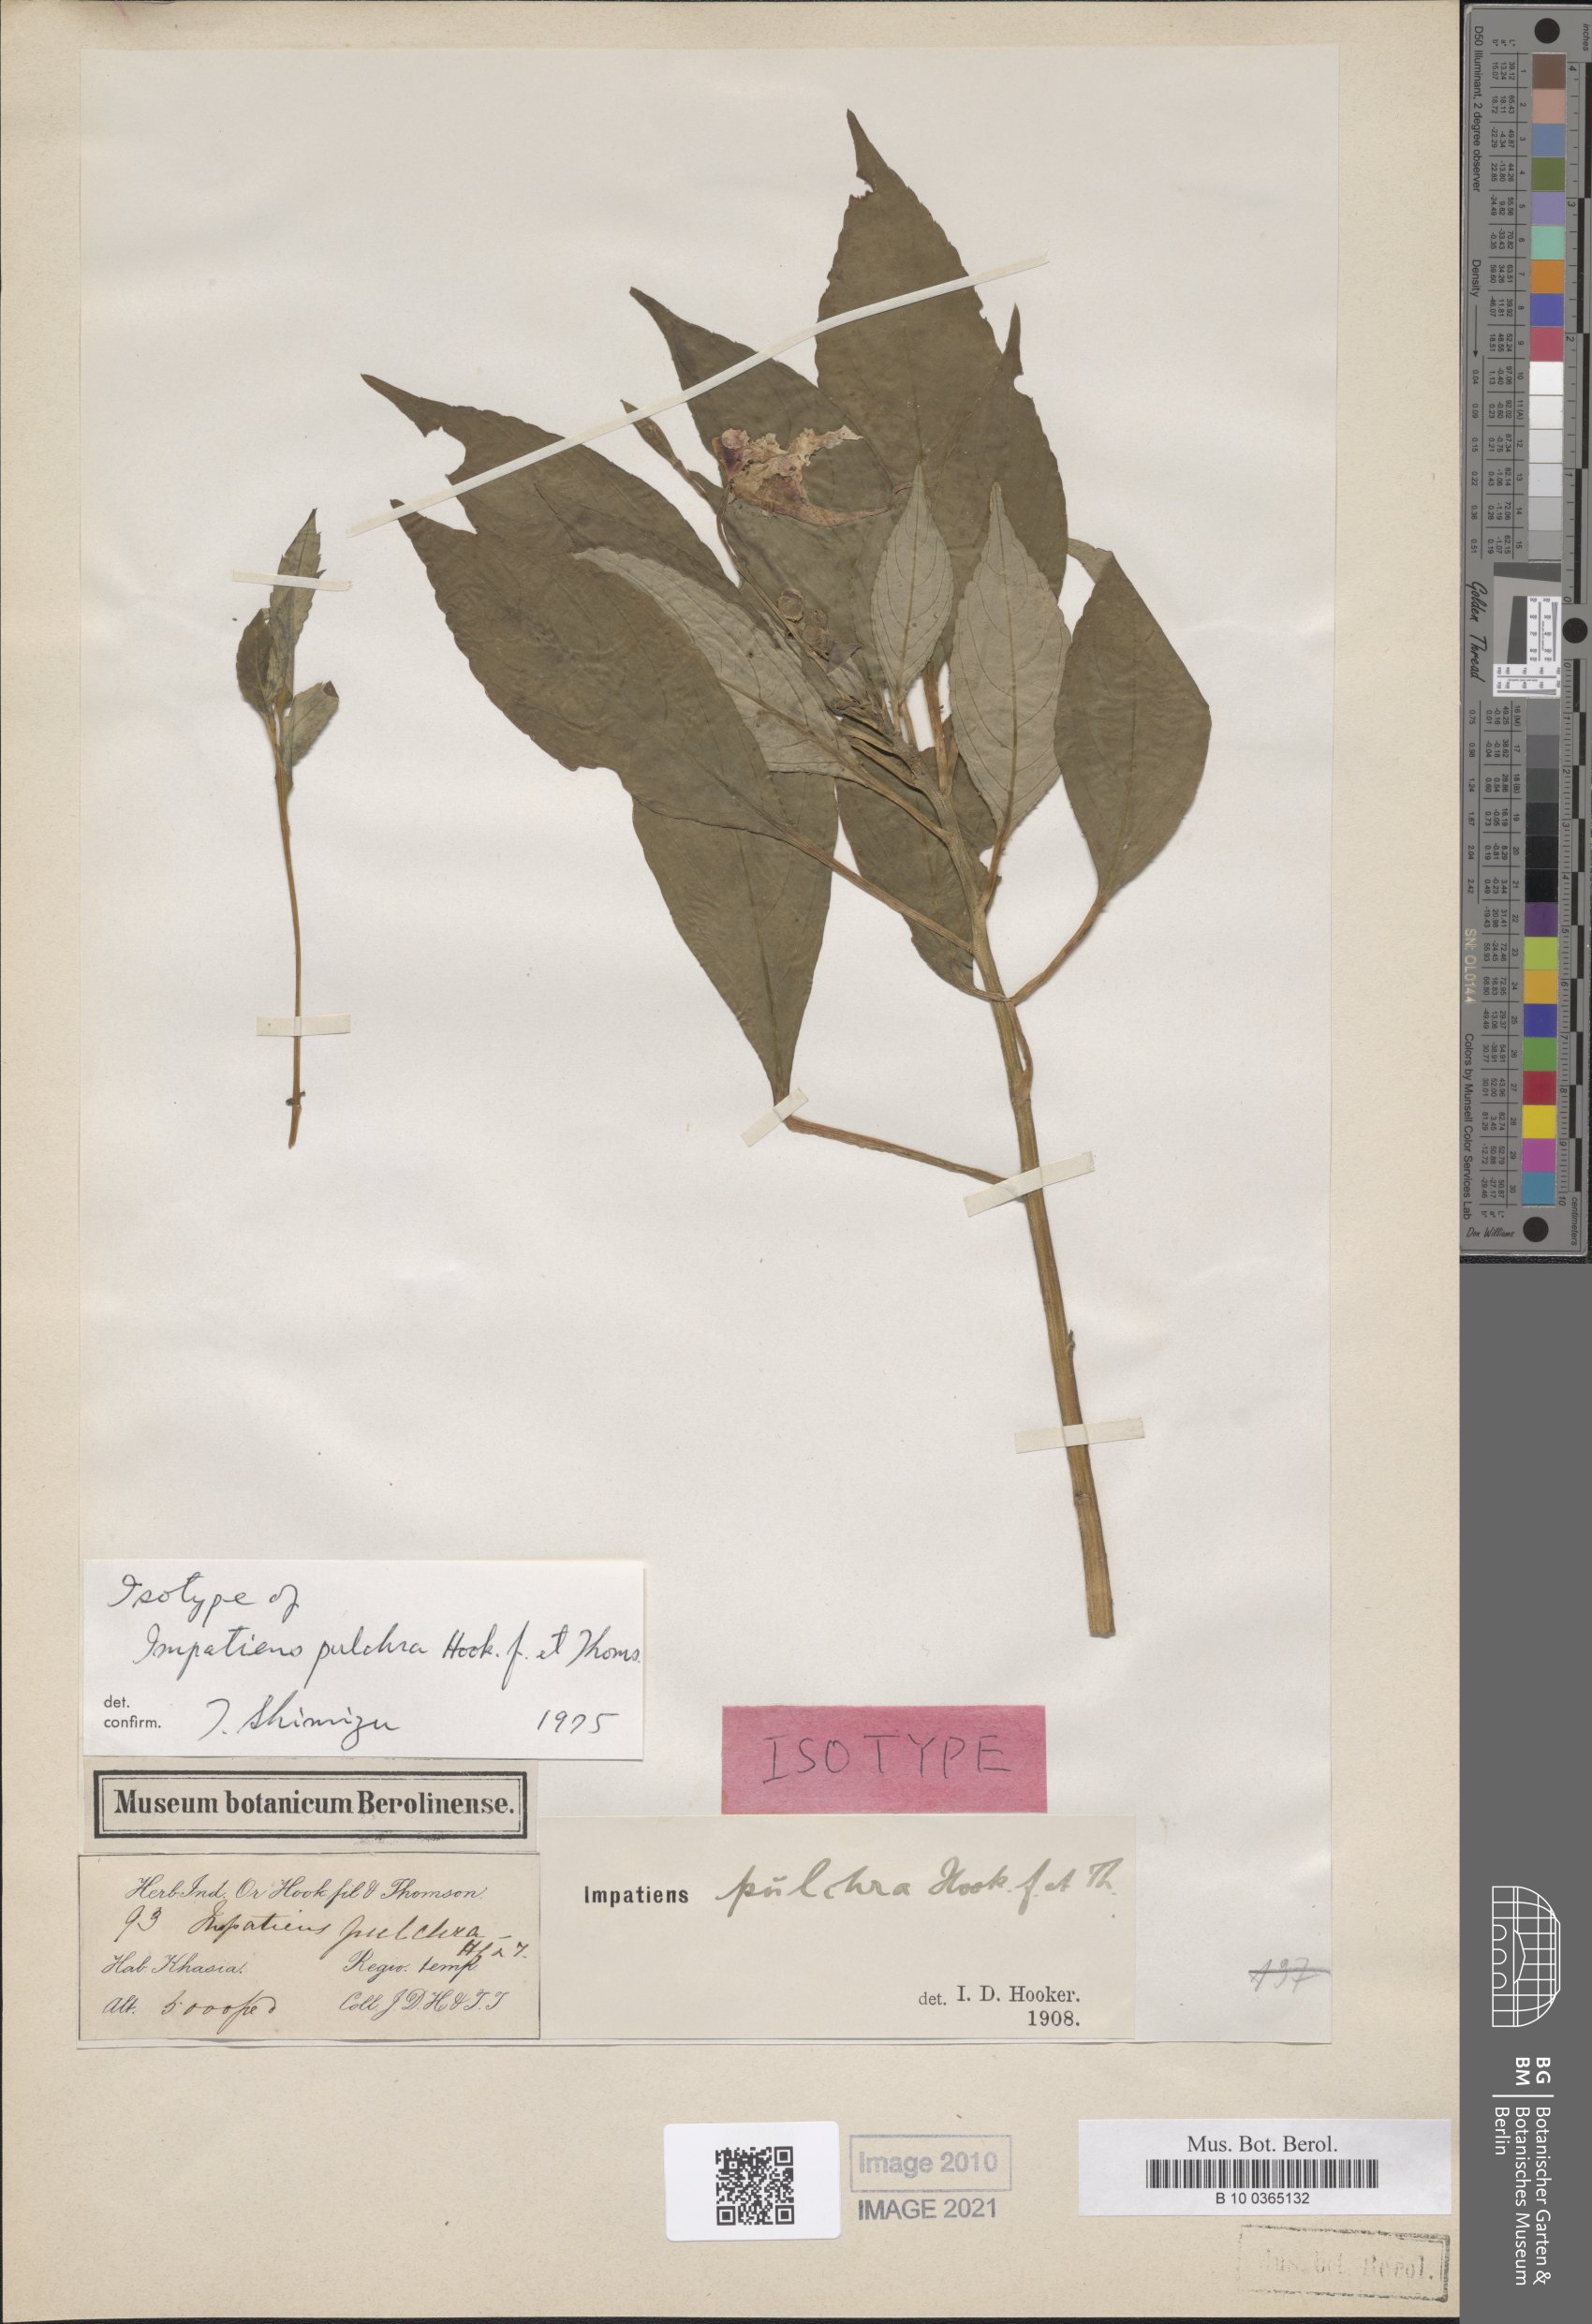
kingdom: Plantae
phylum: Tracheophyta
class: Magnoliopsida
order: Ericales
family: Balsaminaceae
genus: Impatiens
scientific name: Impatiens pulchra
